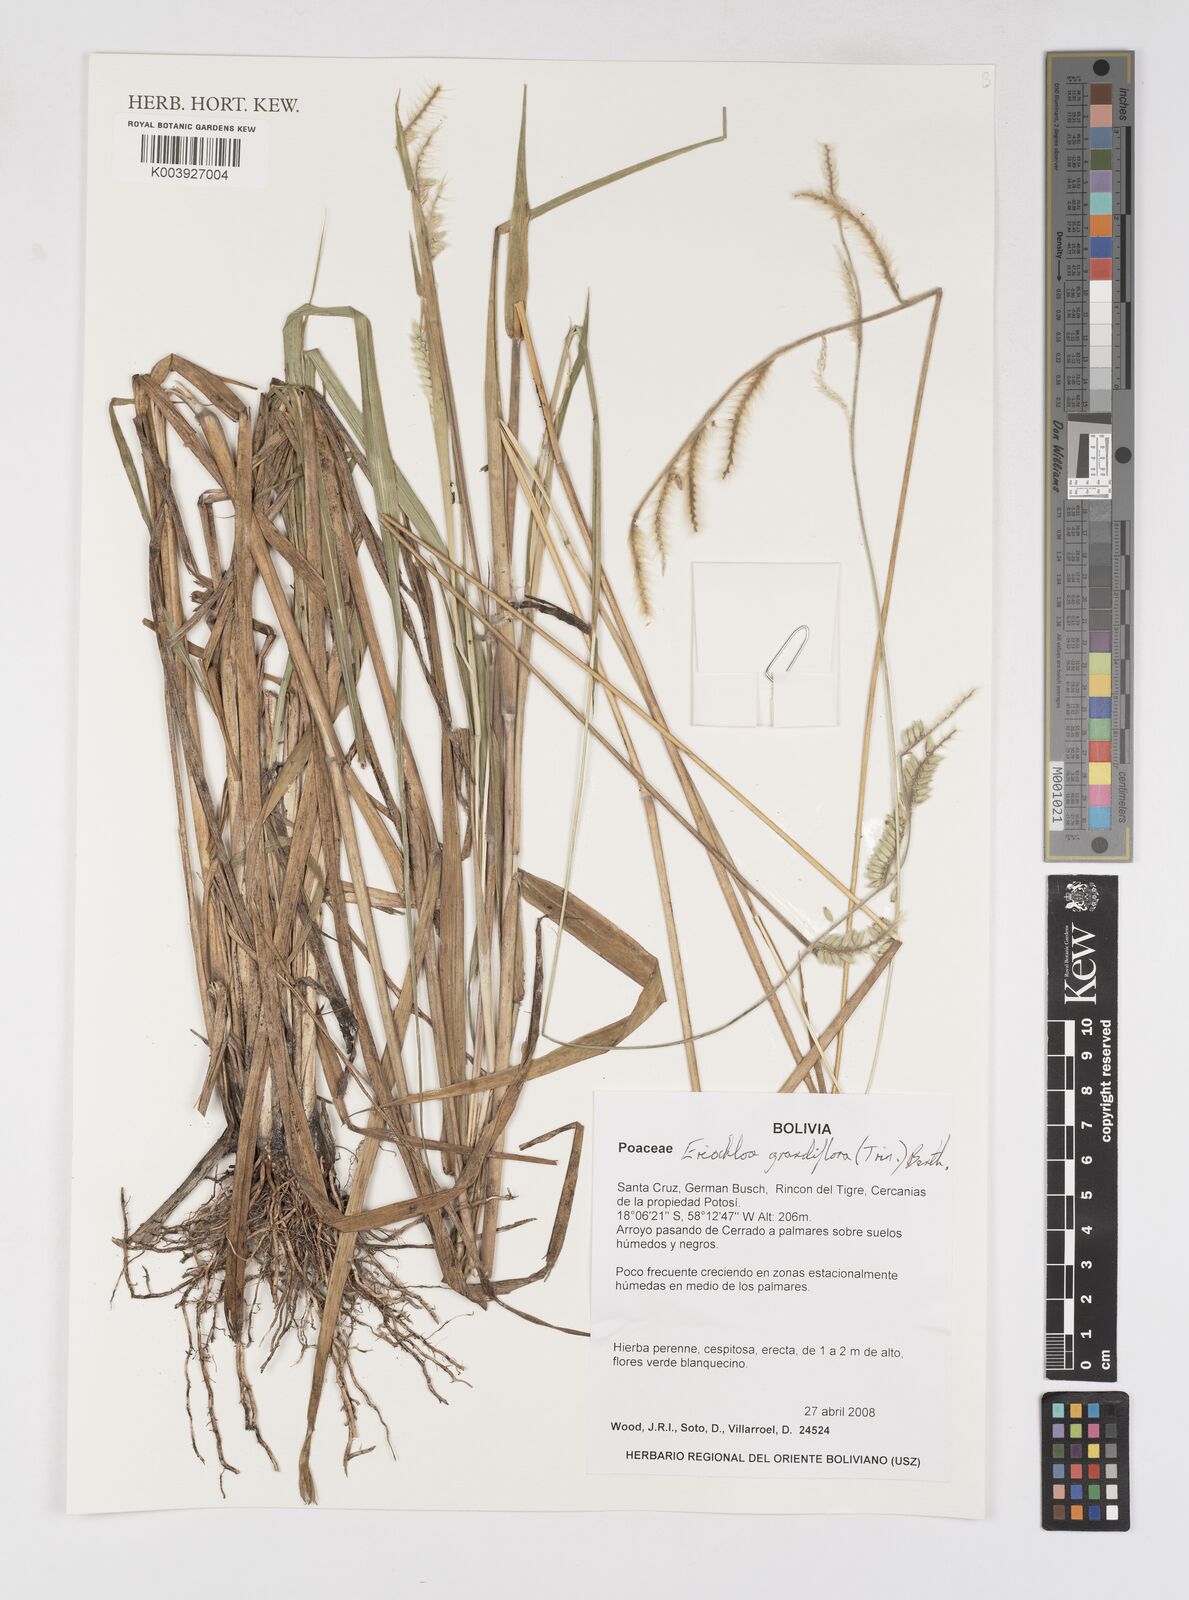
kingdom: Plantae
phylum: Tracheophyta
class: Liliopsida
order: Poales
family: Poaceae
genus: Eriochloa
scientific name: Eriochloa grandiflora
